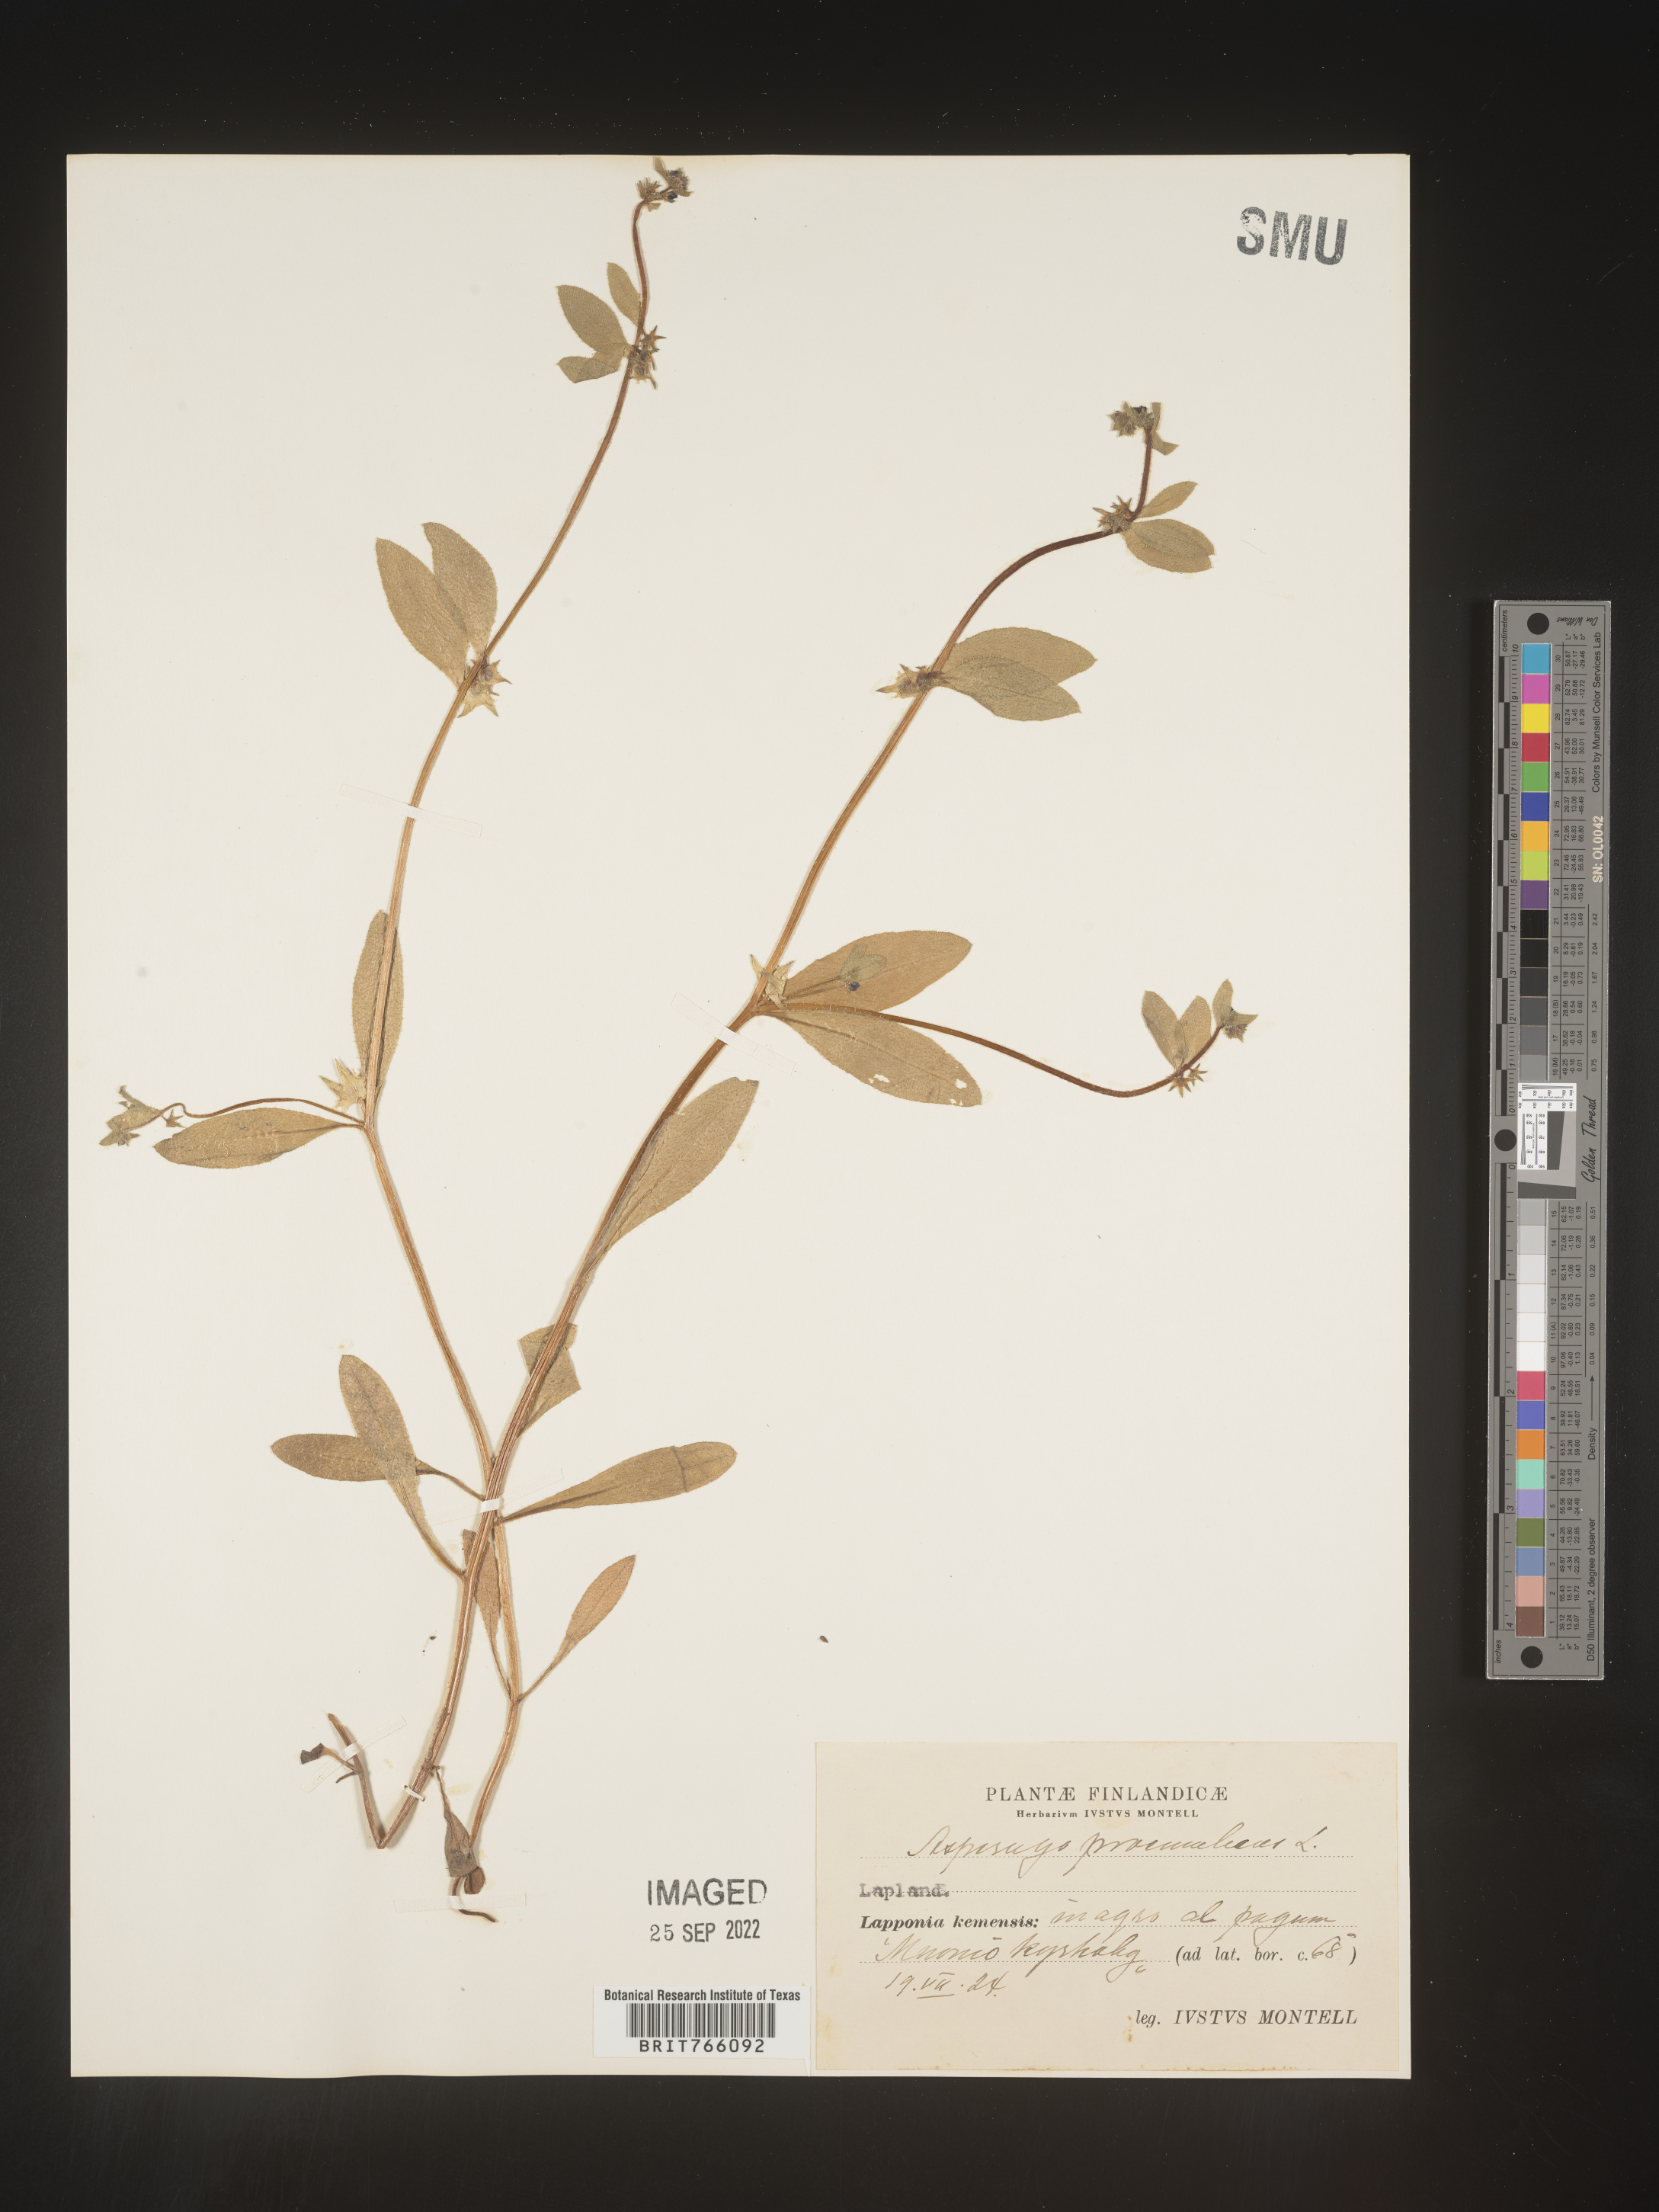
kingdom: Plantae
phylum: Tracheophyta
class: Magnoliopsida
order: Boraginales
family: Boraginaceae
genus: Asperugo
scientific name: Asperugo
